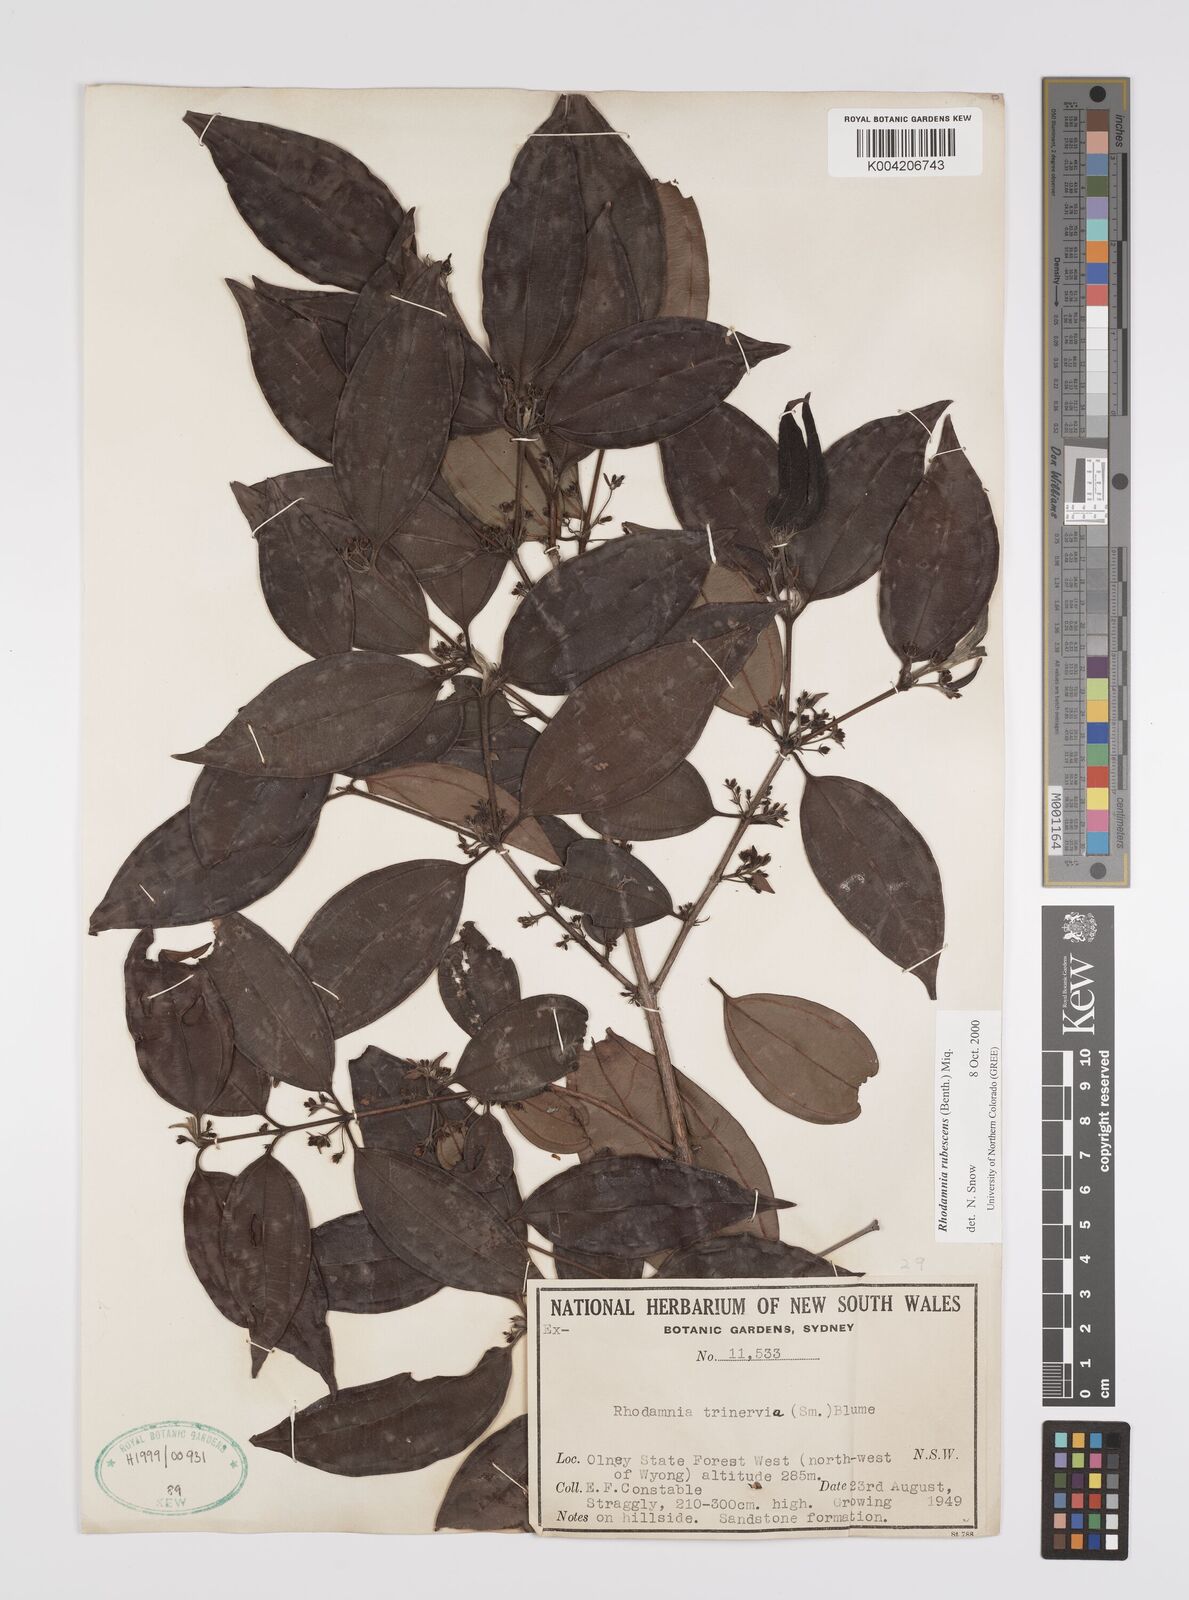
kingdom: Plantae
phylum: Tracheophyta
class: Magnoliopsida
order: Myrtales
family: Myrtaceae
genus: Rhodamnia
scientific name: Rhodamnia rubescens
